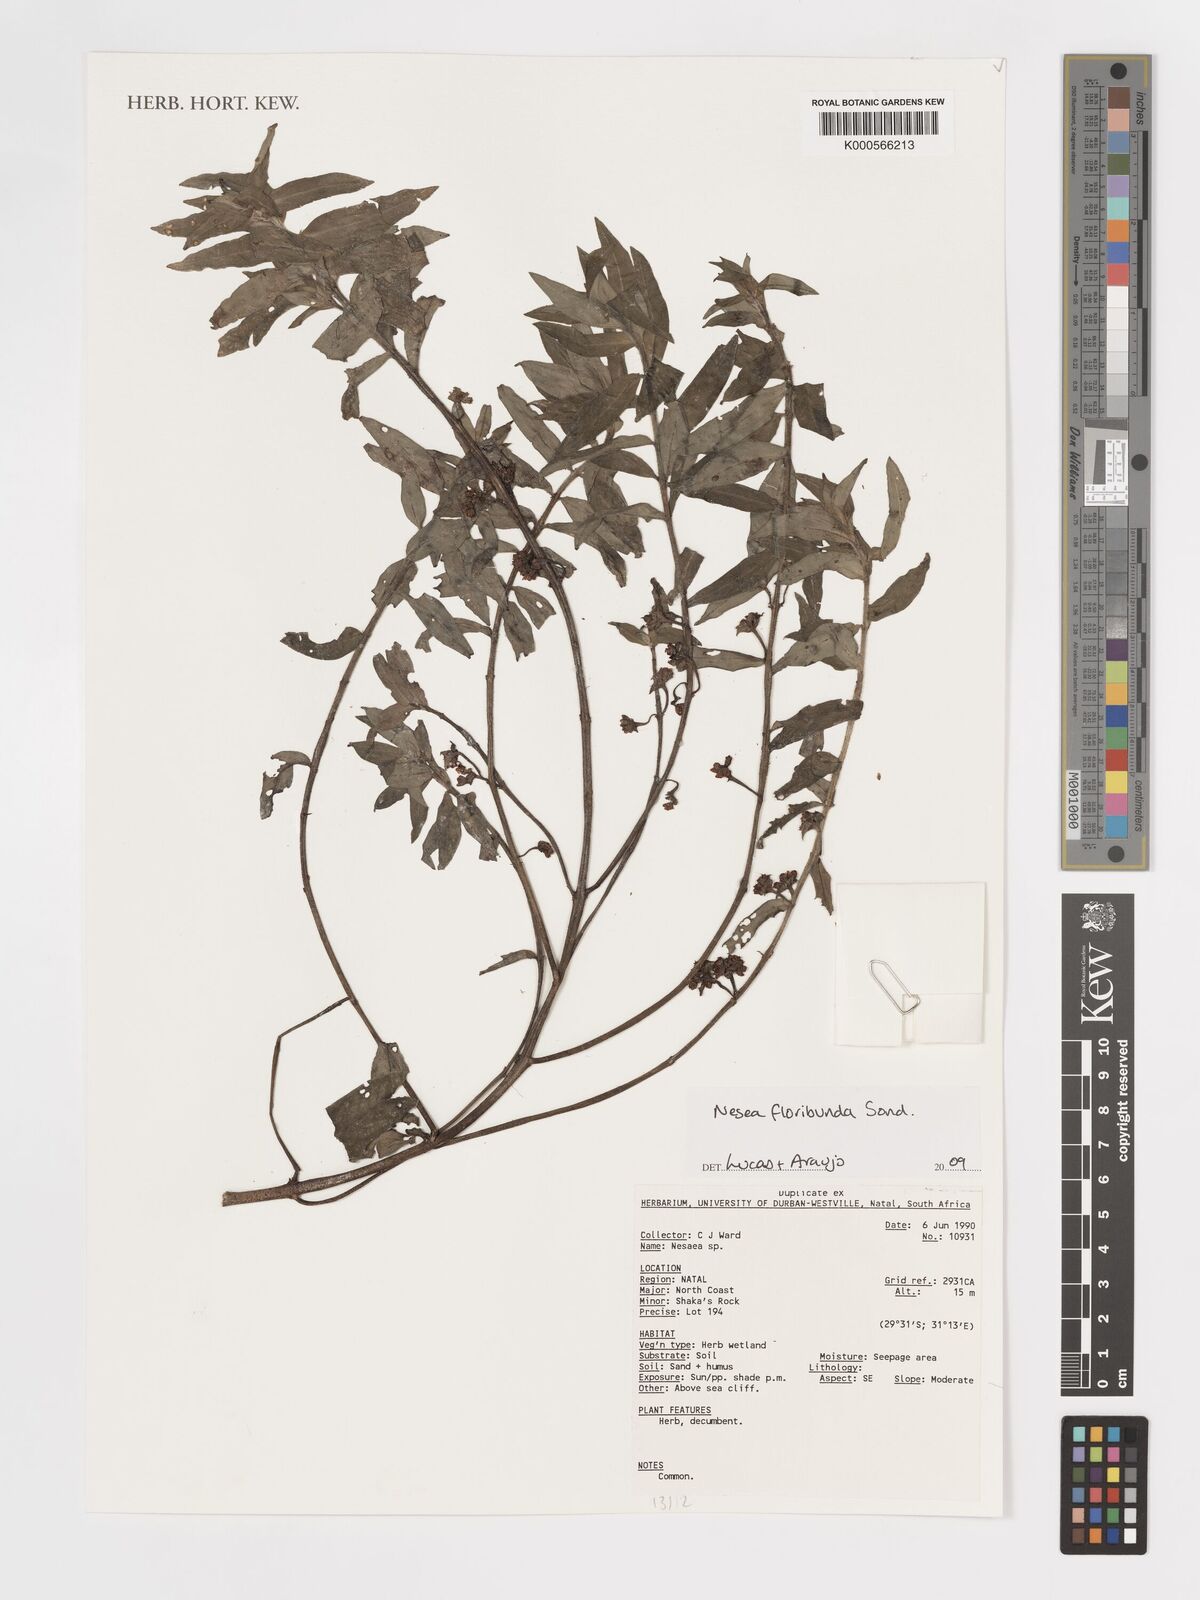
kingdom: Plantae
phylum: Tracheophyta
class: Magnoliopsida
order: Myrtales
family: Lythraceae
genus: Ammannia
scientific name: Ammannia radicans
